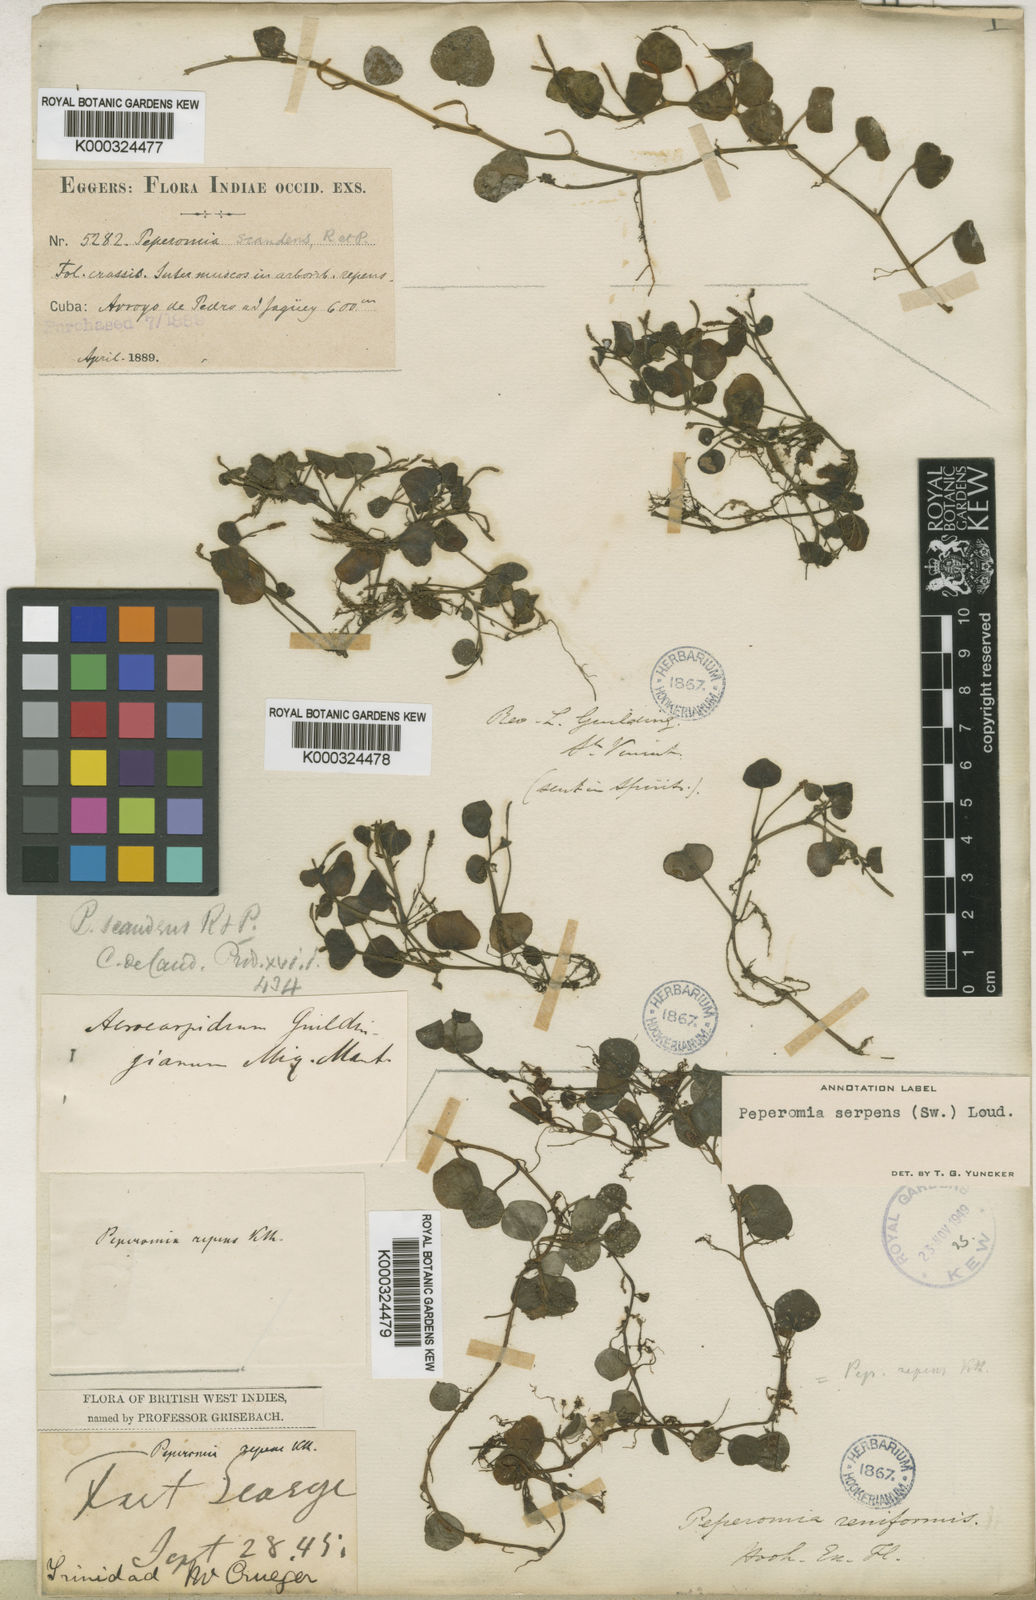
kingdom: Plantae
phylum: Tracheophyta
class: Magnoliopsida
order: Piperales
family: Piperaceae
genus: Peperomia
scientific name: Peperomia serpens
